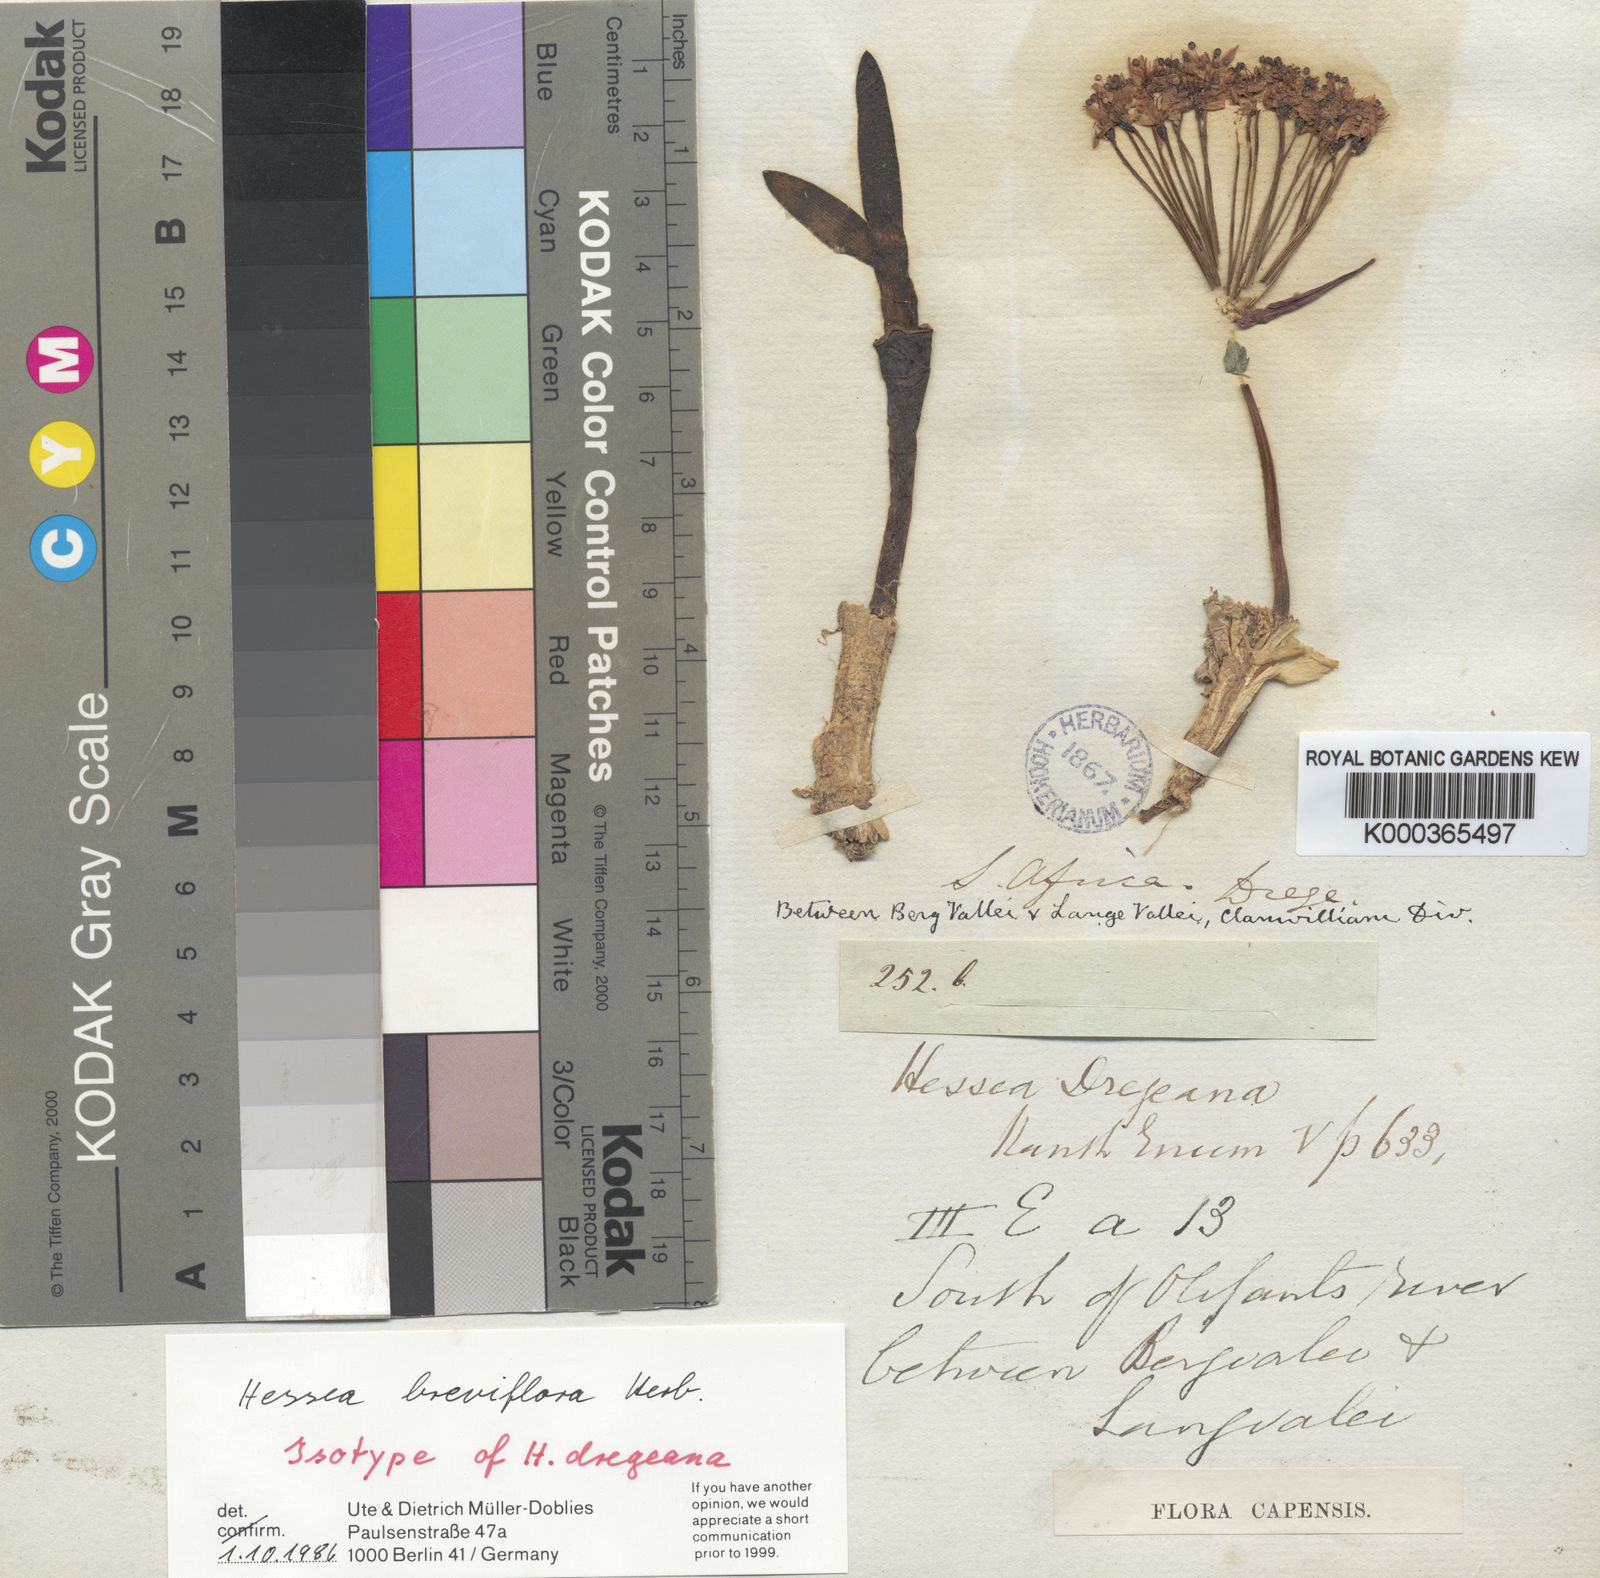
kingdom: Plantae
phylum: Tracheophyta
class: Liliopsida
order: Asparagales
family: Amaryllidaceae
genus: Hessea
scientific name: Hessea breviflora
